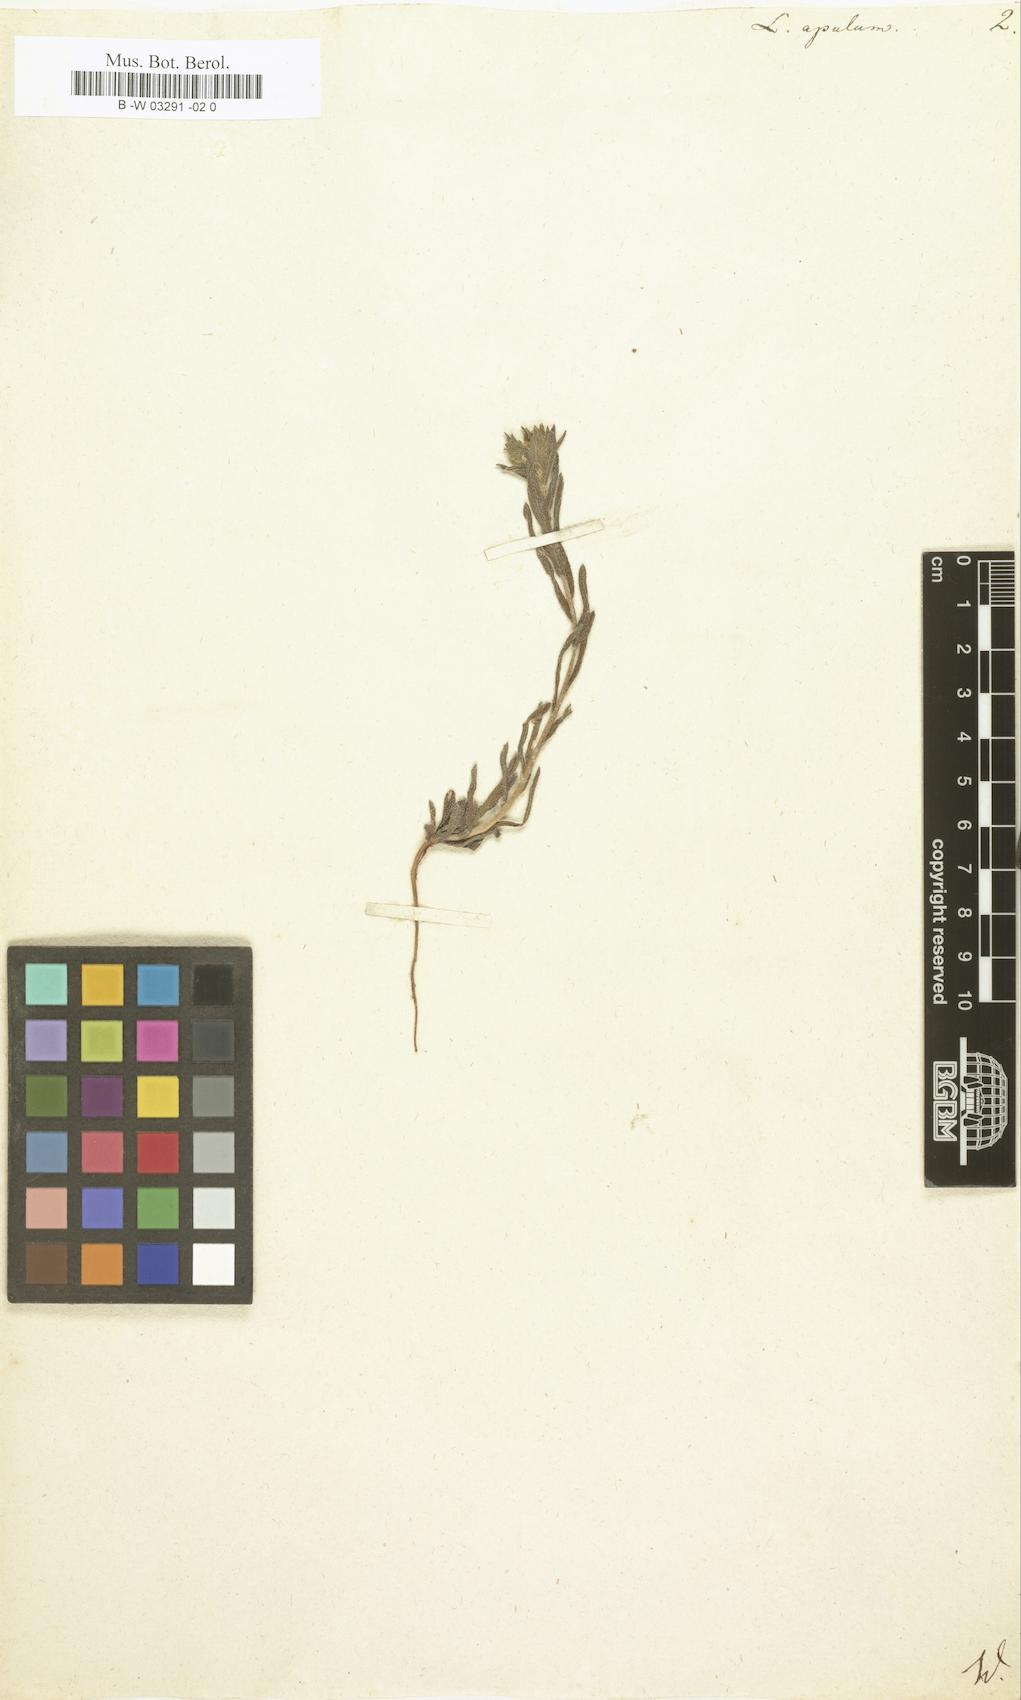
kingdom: Plantae
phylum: Tracheophyta
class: Magnoliopsida
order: Boraginales
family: Boraginaceae
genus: Neatostema
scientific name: Neatostema apulum
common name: Hairy sheepweed
